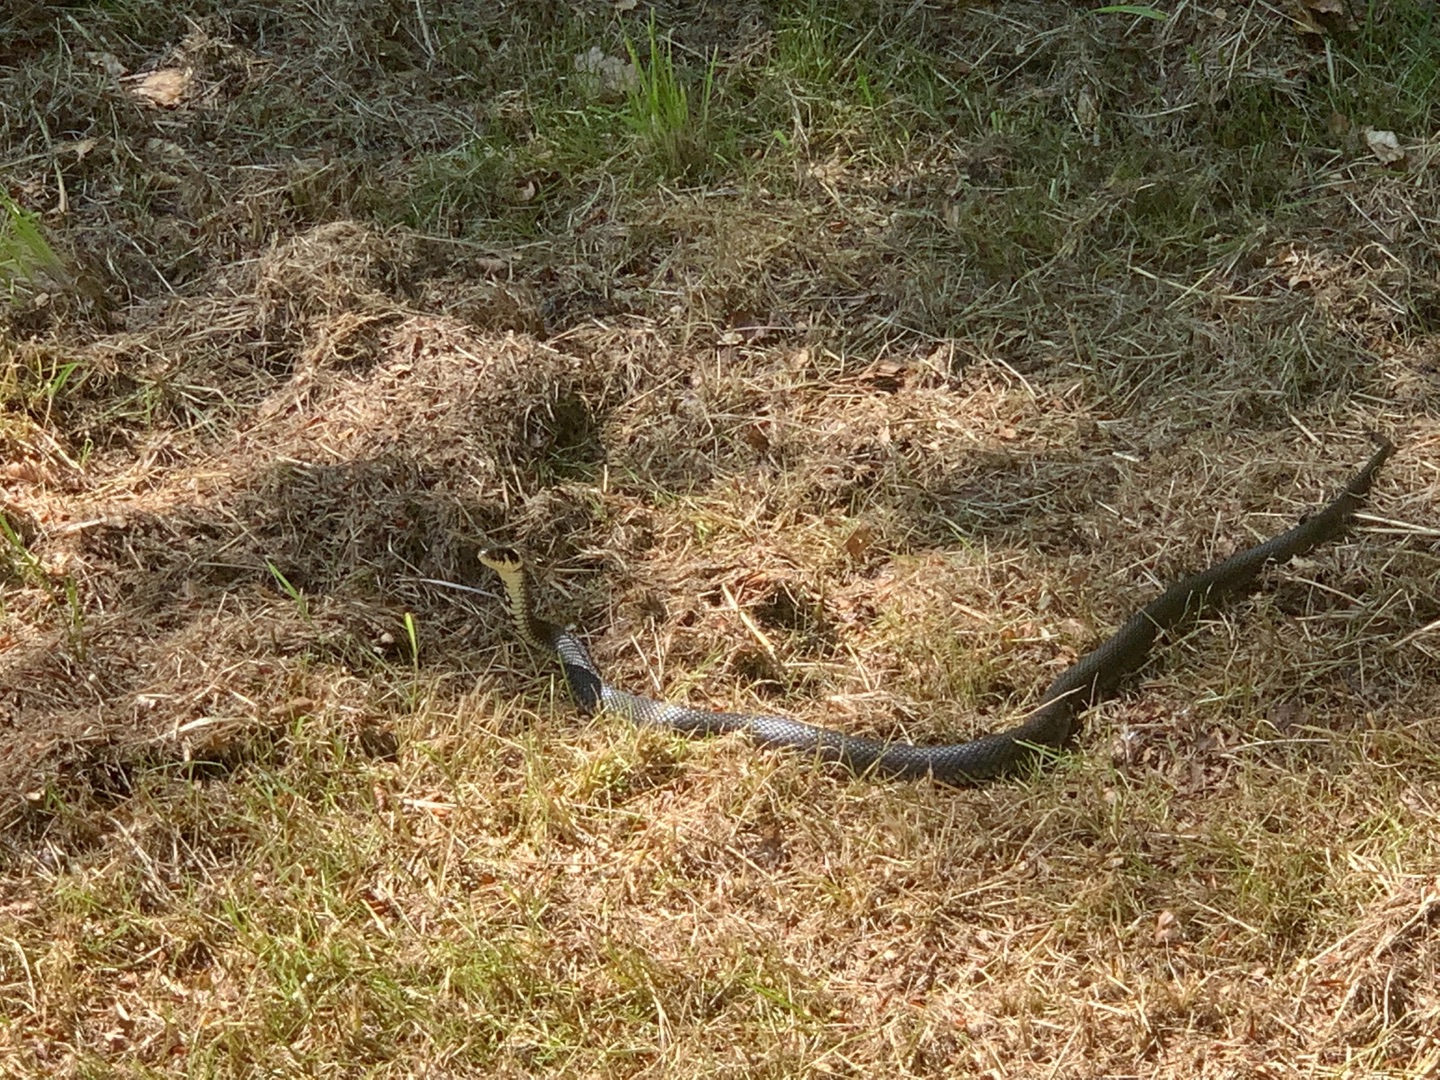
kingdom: Animalia
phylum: Chordata
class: Squamata
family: Colubridae
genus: Natrix
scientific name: Natrix natrix
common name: Snog
